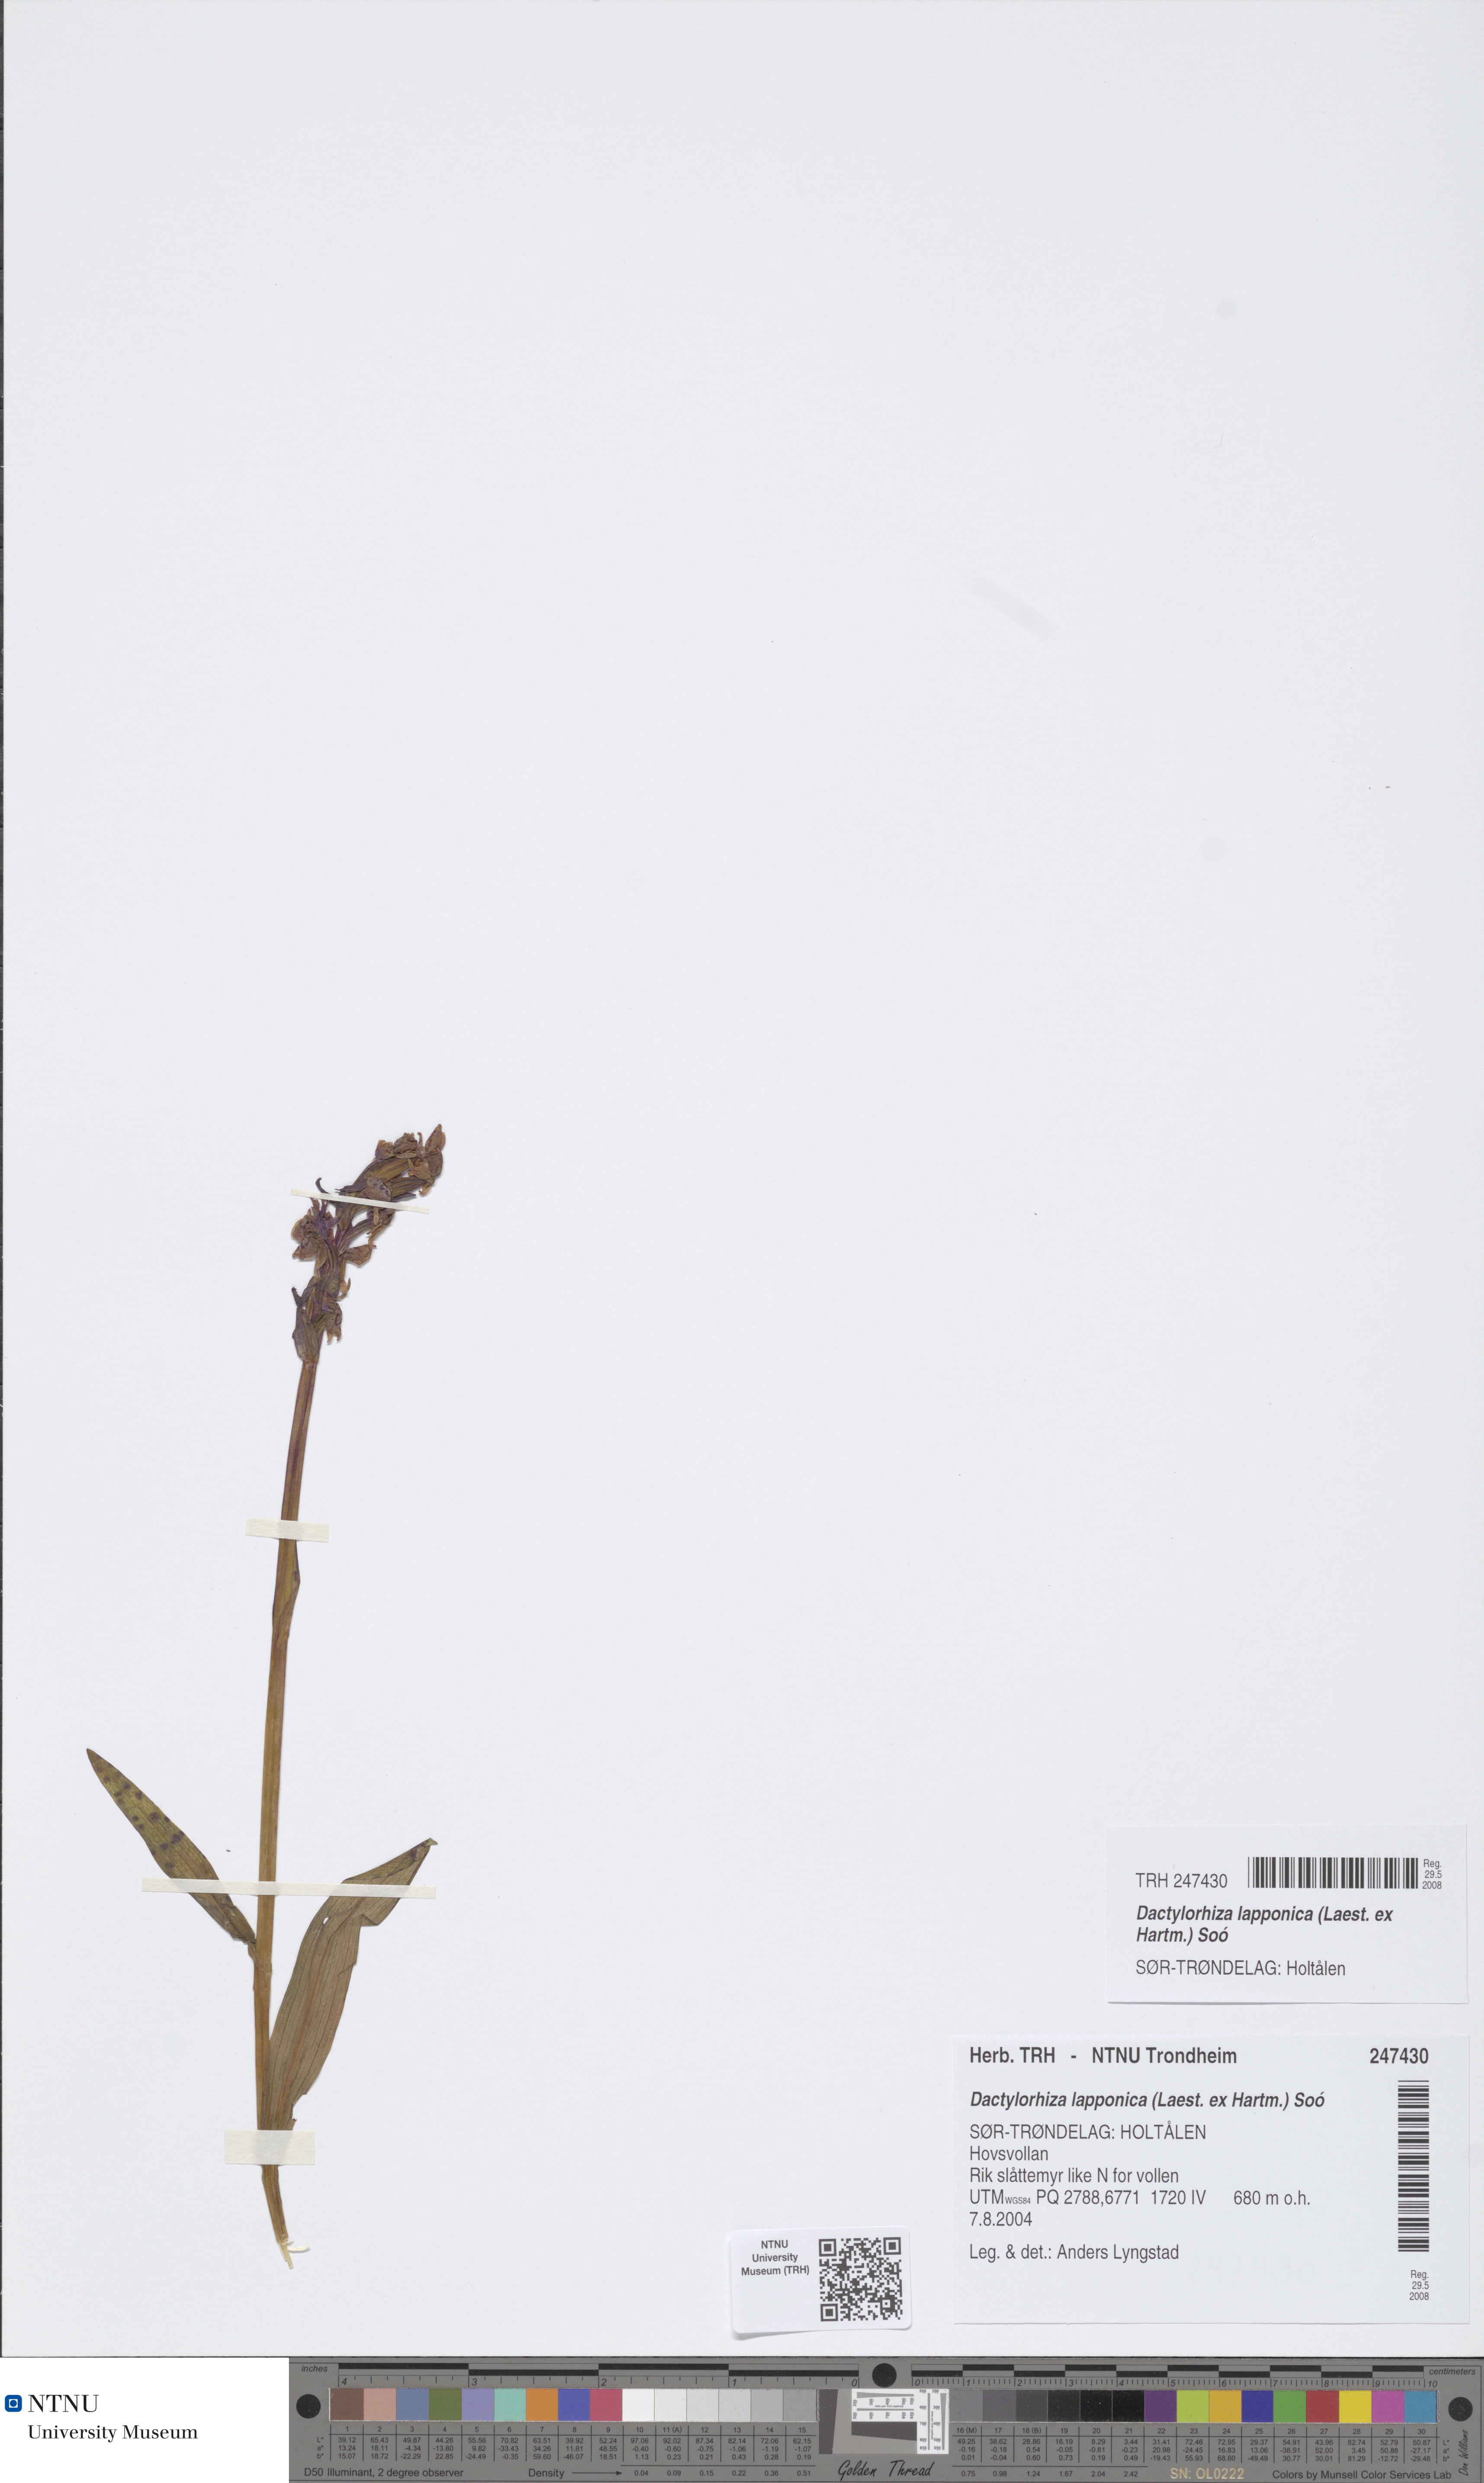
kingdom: Plantae
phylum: Tracheophyta
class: Liliopsida
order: Asparagales
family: Orchidaceae
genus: Dactylorhiza
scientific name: Dactylorhiza majalis
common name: Marsh orchid
